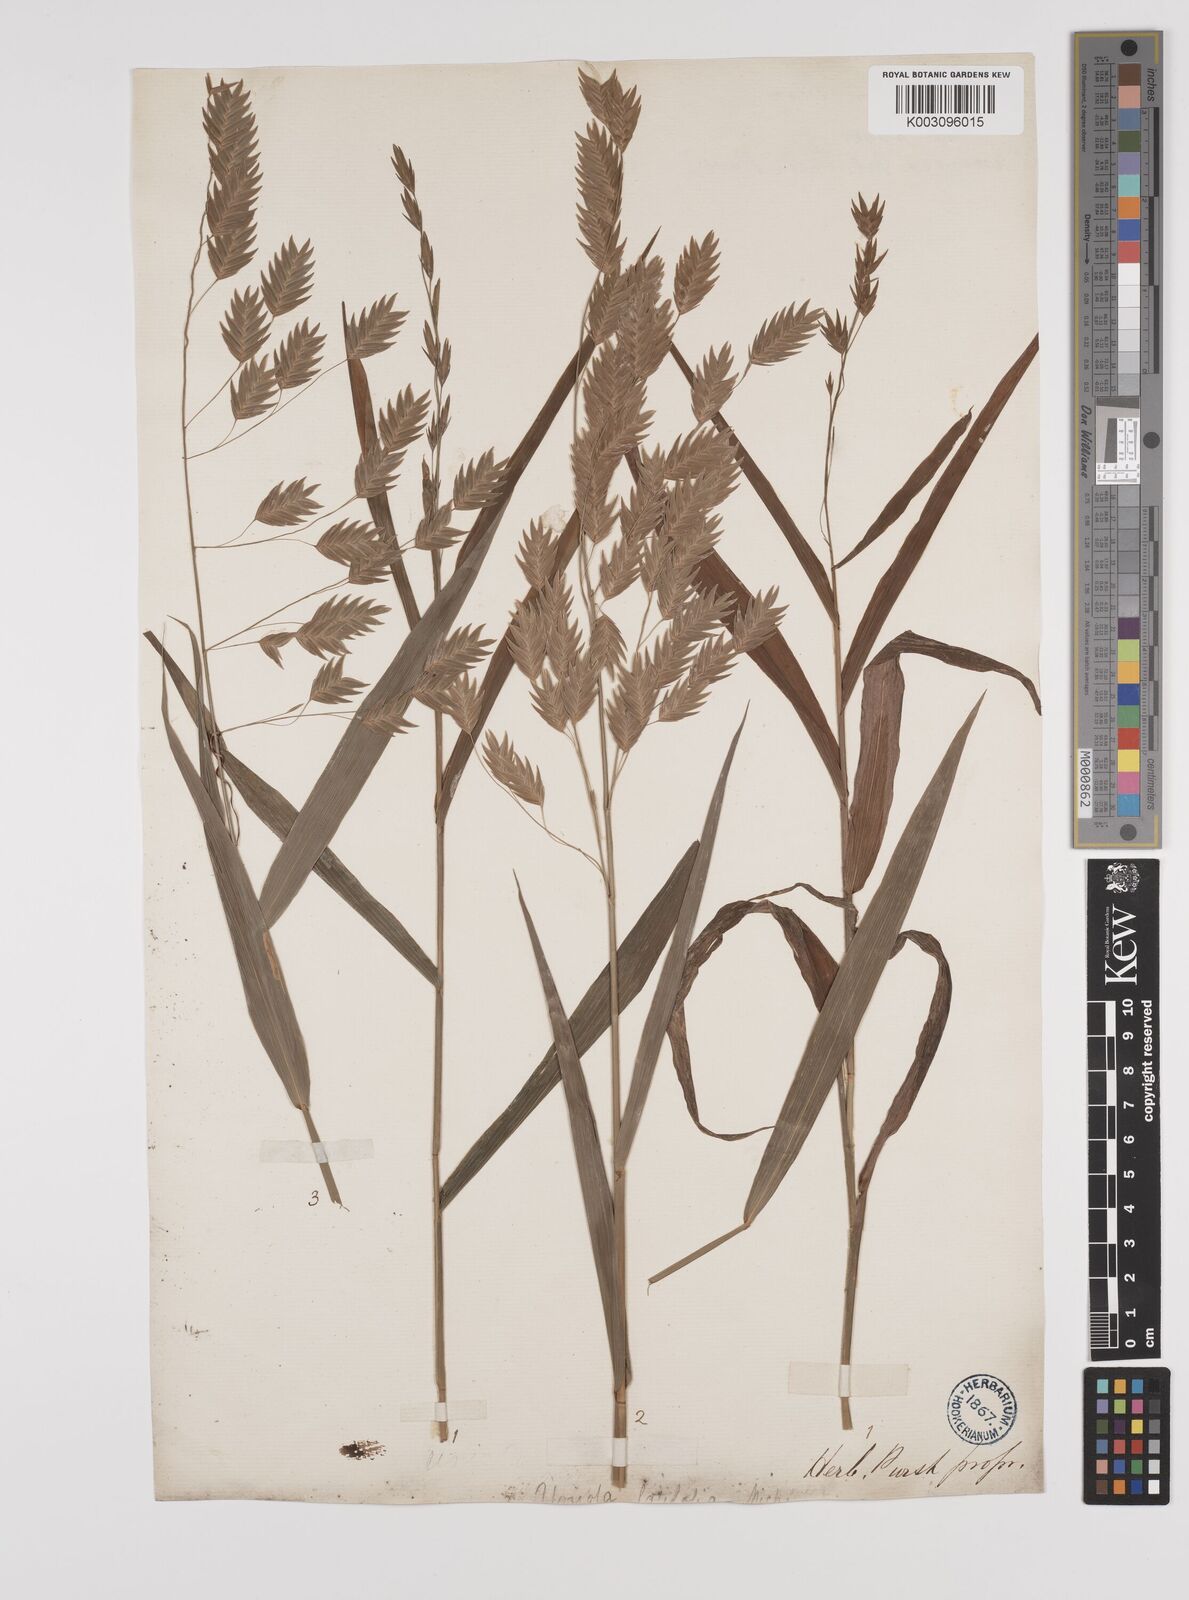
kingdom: Plantae
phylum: Tracheophyta
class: Liliopsida
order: Poales
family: Poaceae
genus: Chasmanthium
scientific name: Chasmanthium latifolium
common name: Broad-leaved chasmanthium
